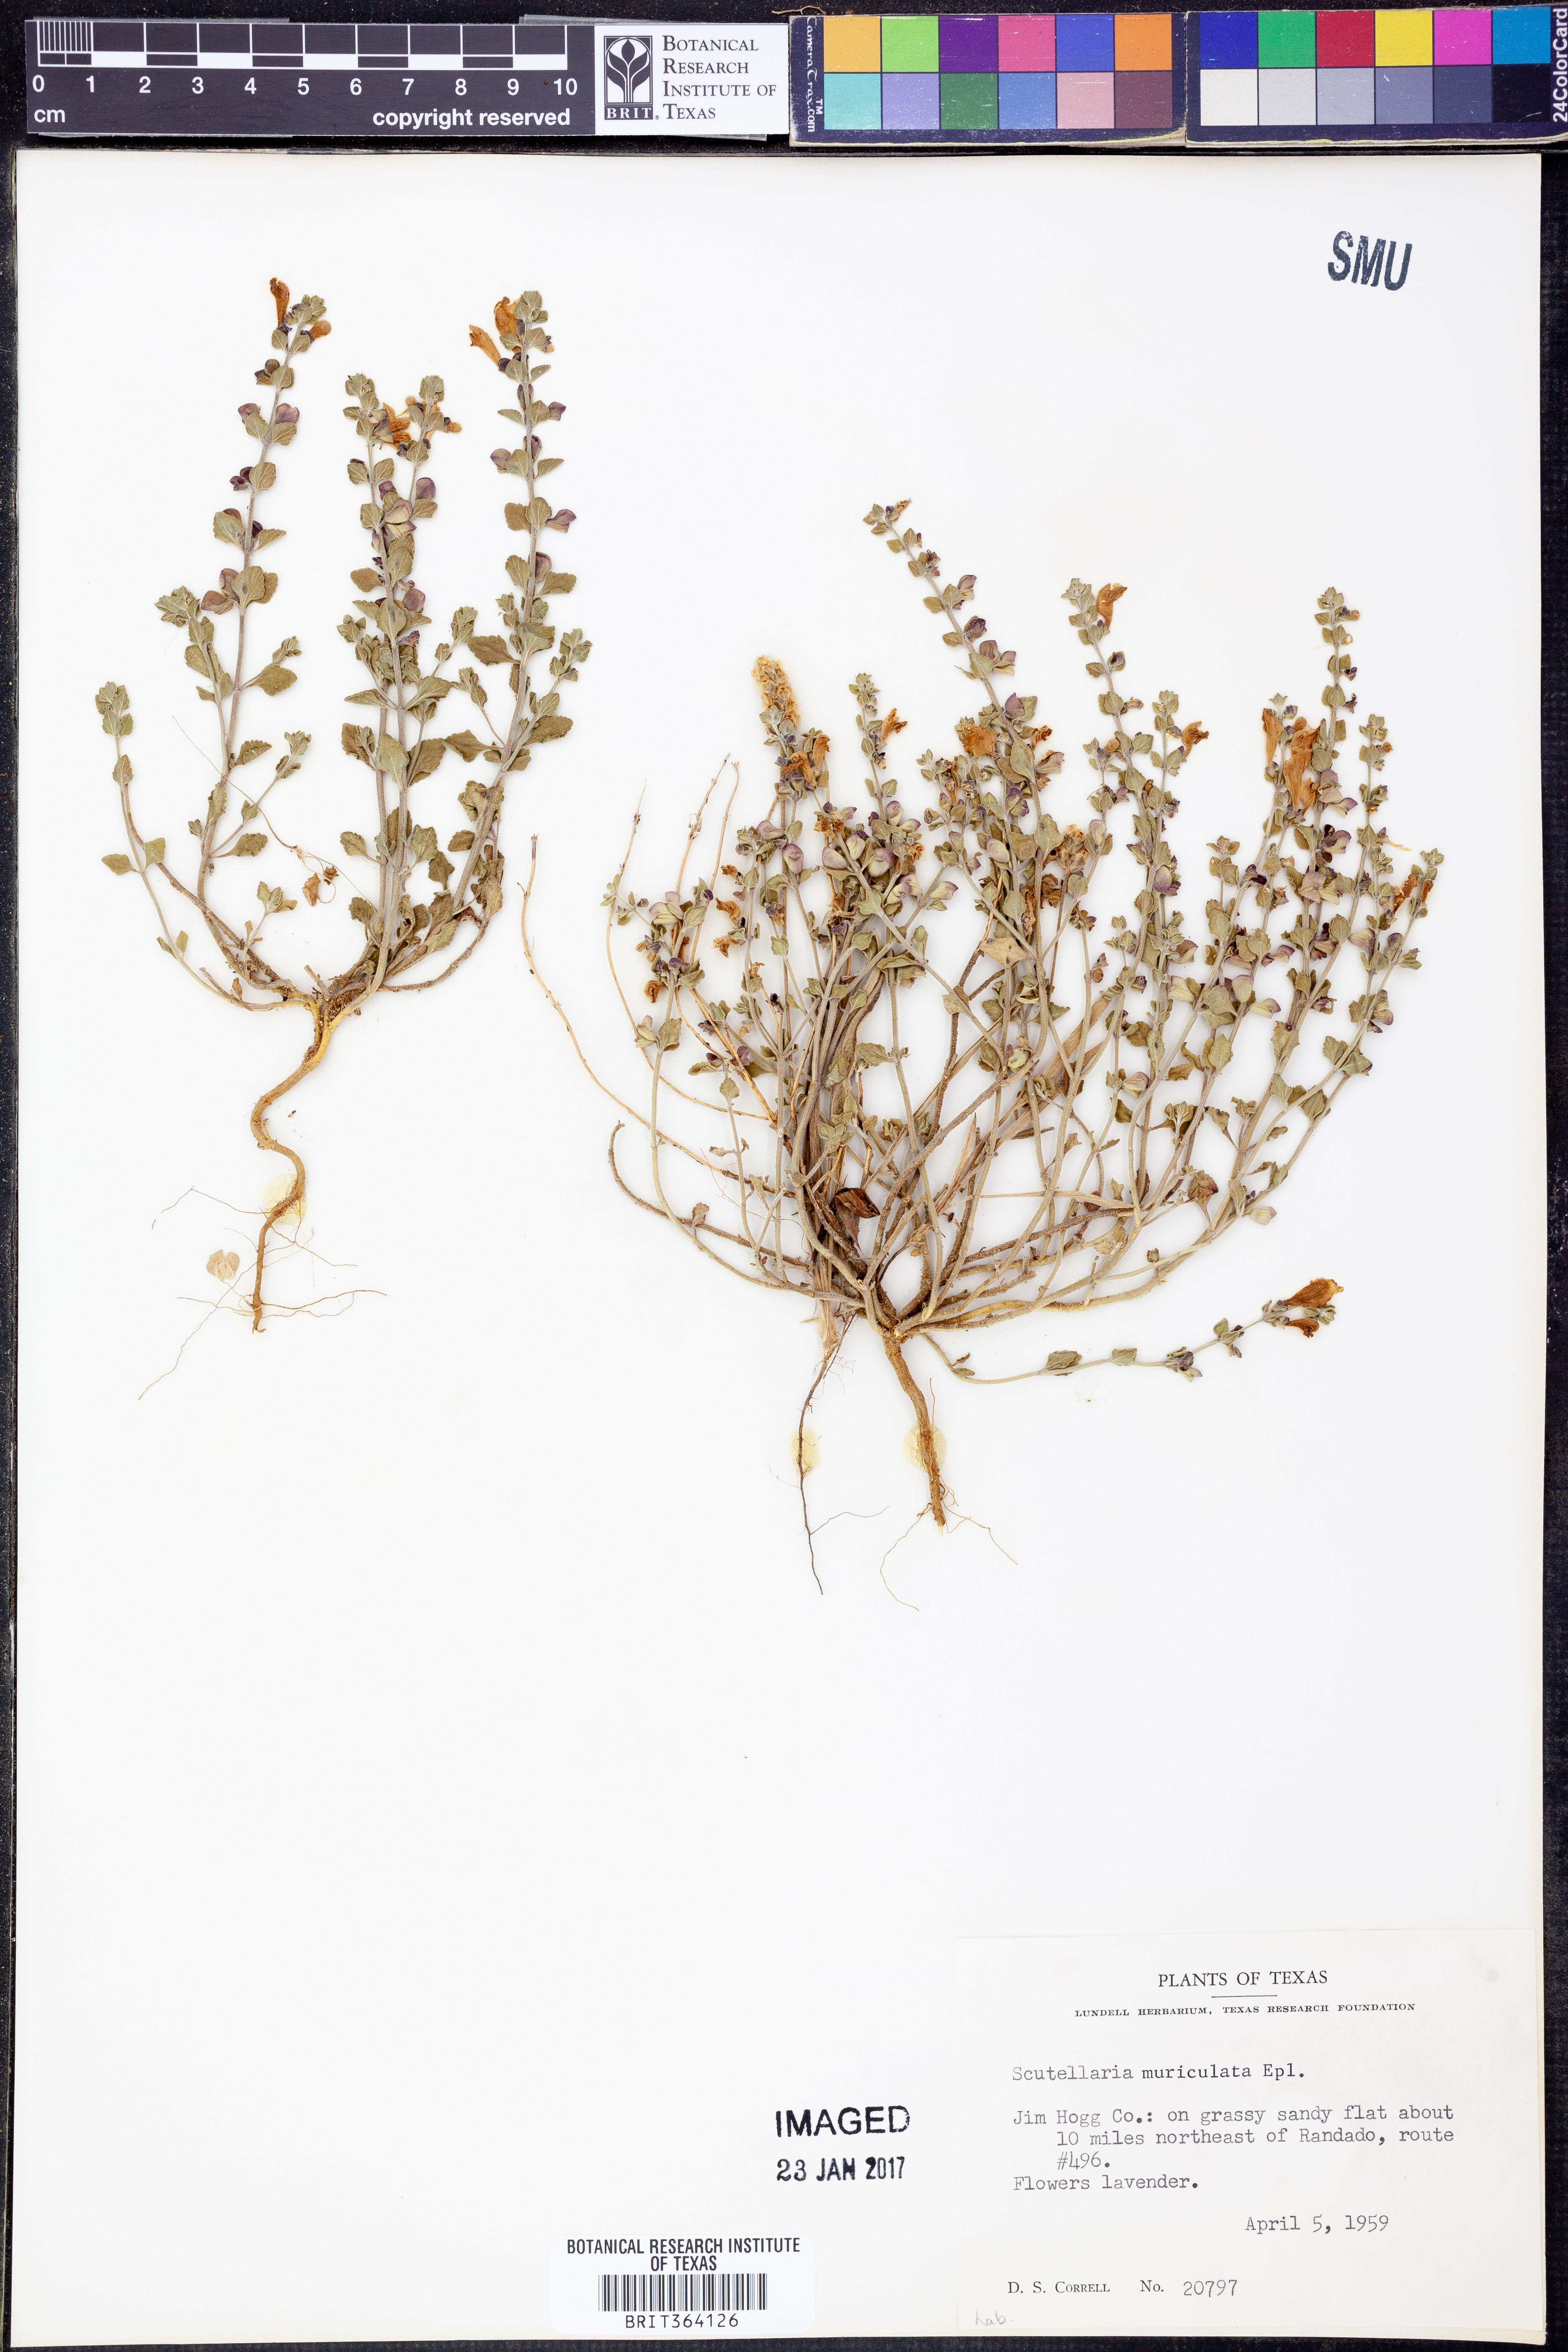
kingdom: Plantae
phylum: Tracheophyta
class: Magnoliopsida
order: Lamiales
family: Lamiaceae
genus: Scutellaria
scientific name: Scutellaria muriculata
